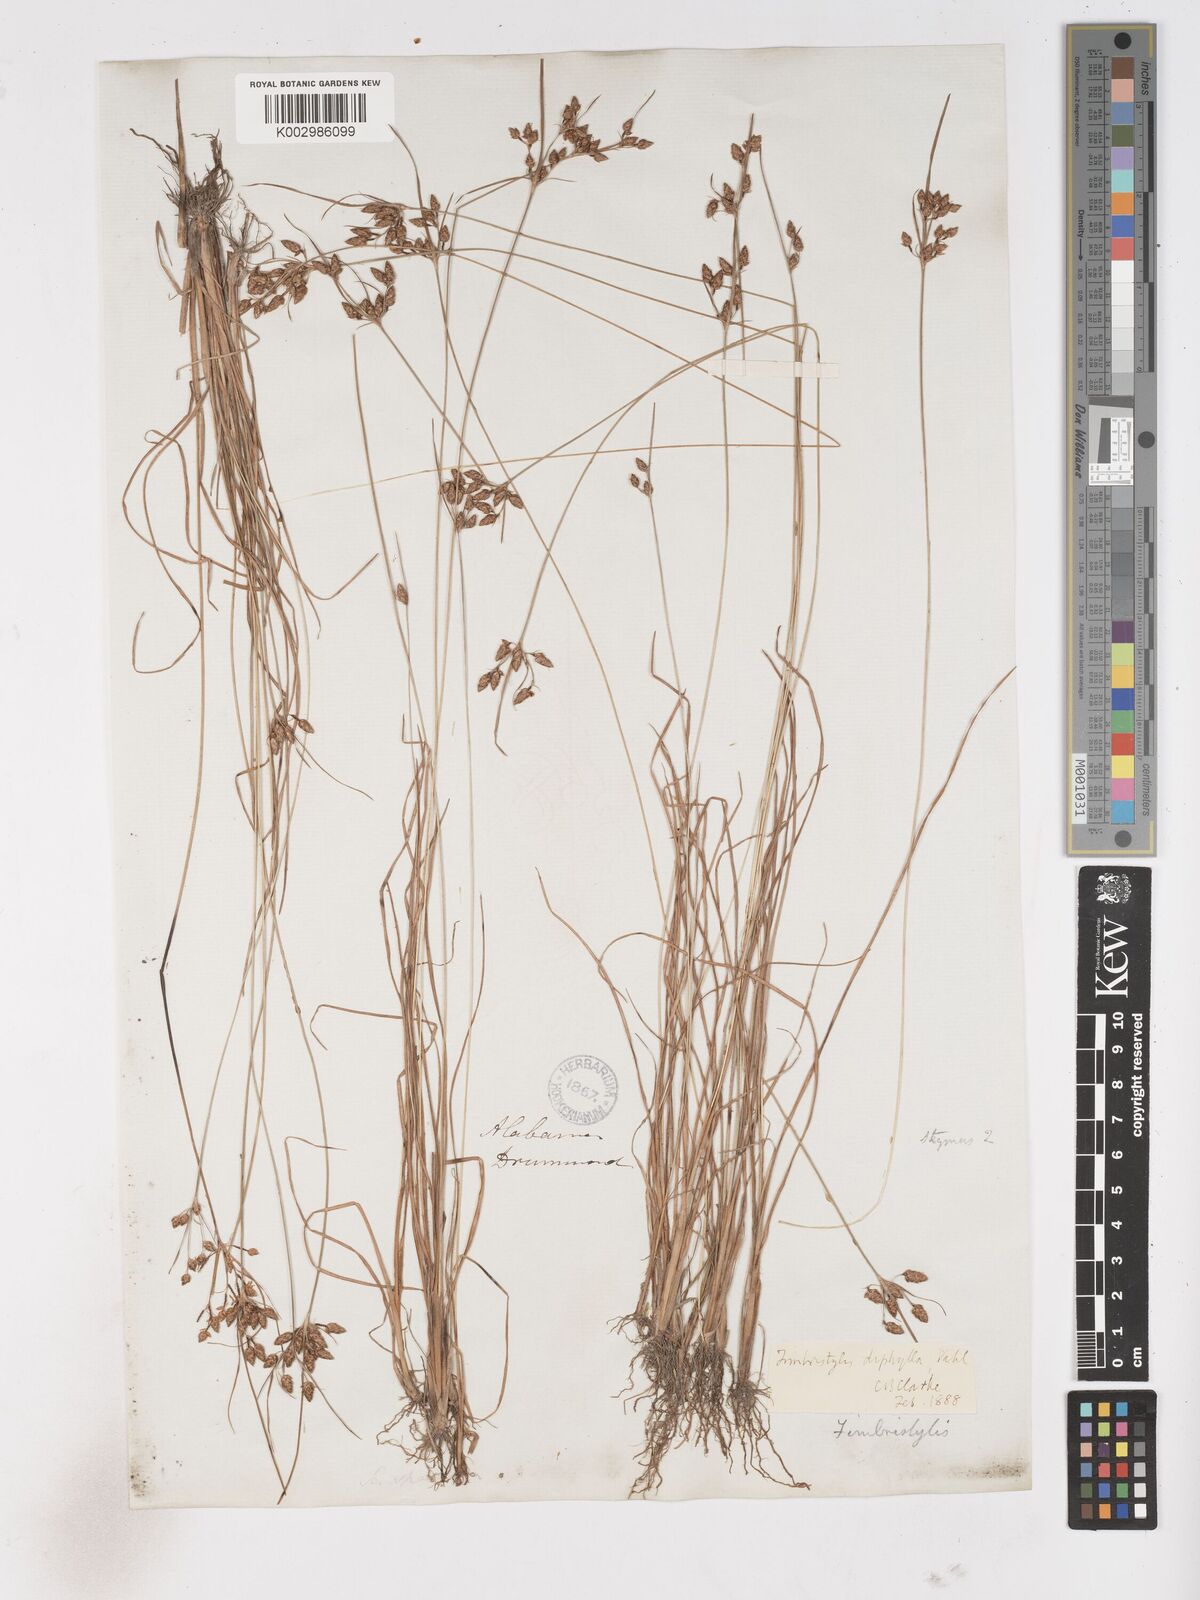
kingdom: Plantae
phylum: Tracheophyta
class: Liliopsida
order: Poales
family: Cyperaceae
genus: Fimbristylis
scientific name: Fimbristylis dichotoma
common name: Forked fimbry
